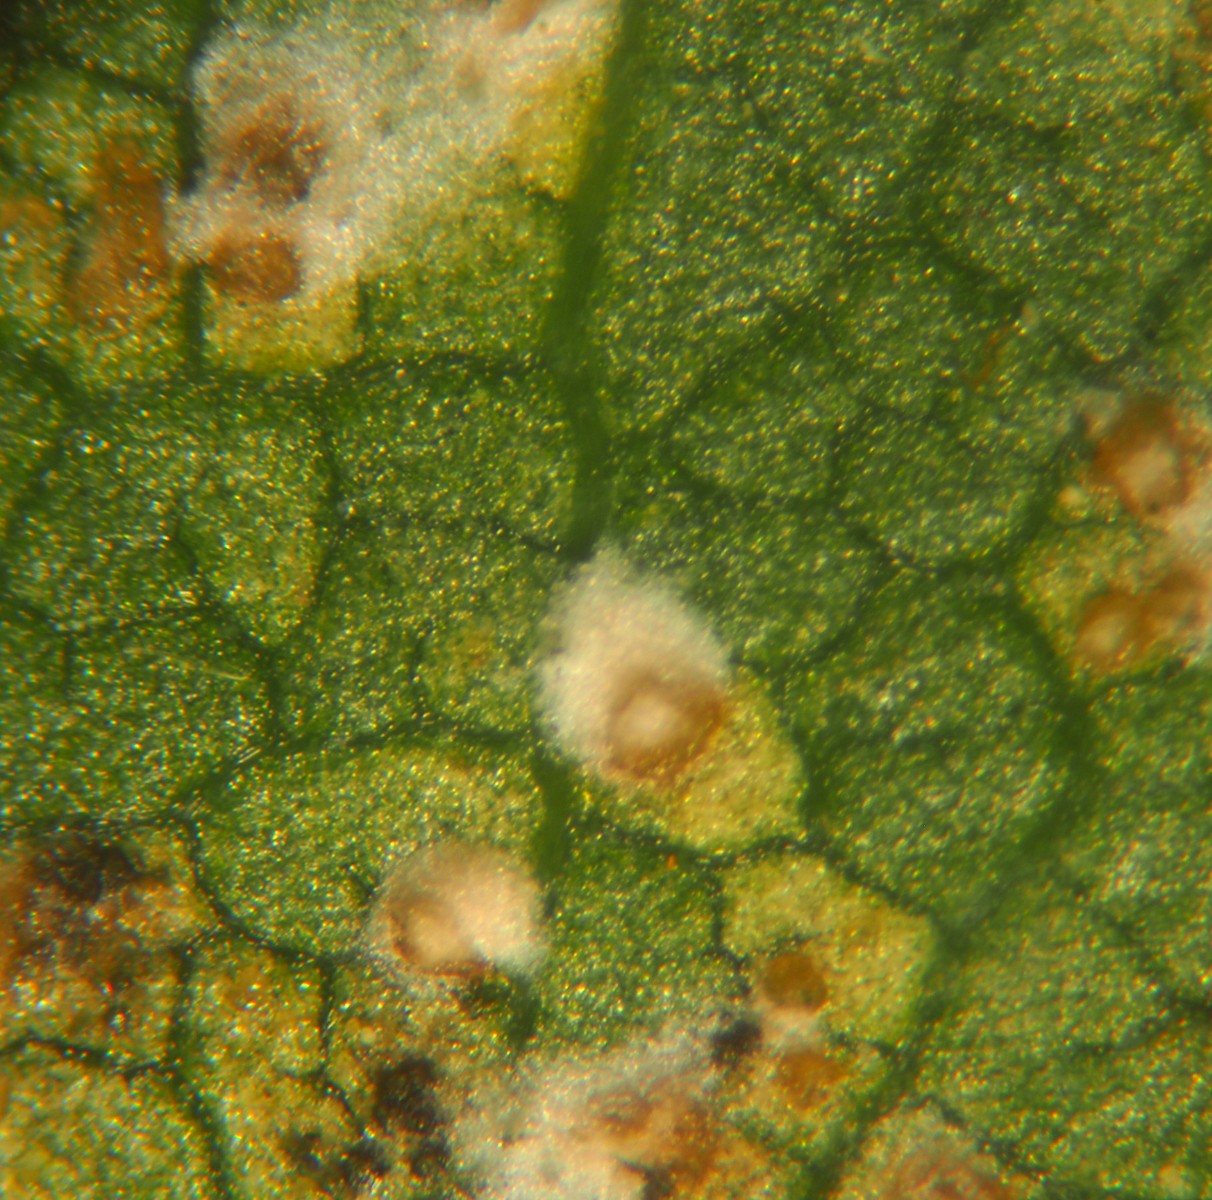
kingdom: Fungi
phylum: Ascomycota
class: Dothideomycetes
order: Mycosphaerellales
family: Mycosphaerellaceae
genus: Mycosphaerella
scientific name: Mycosphaerella ulmi
